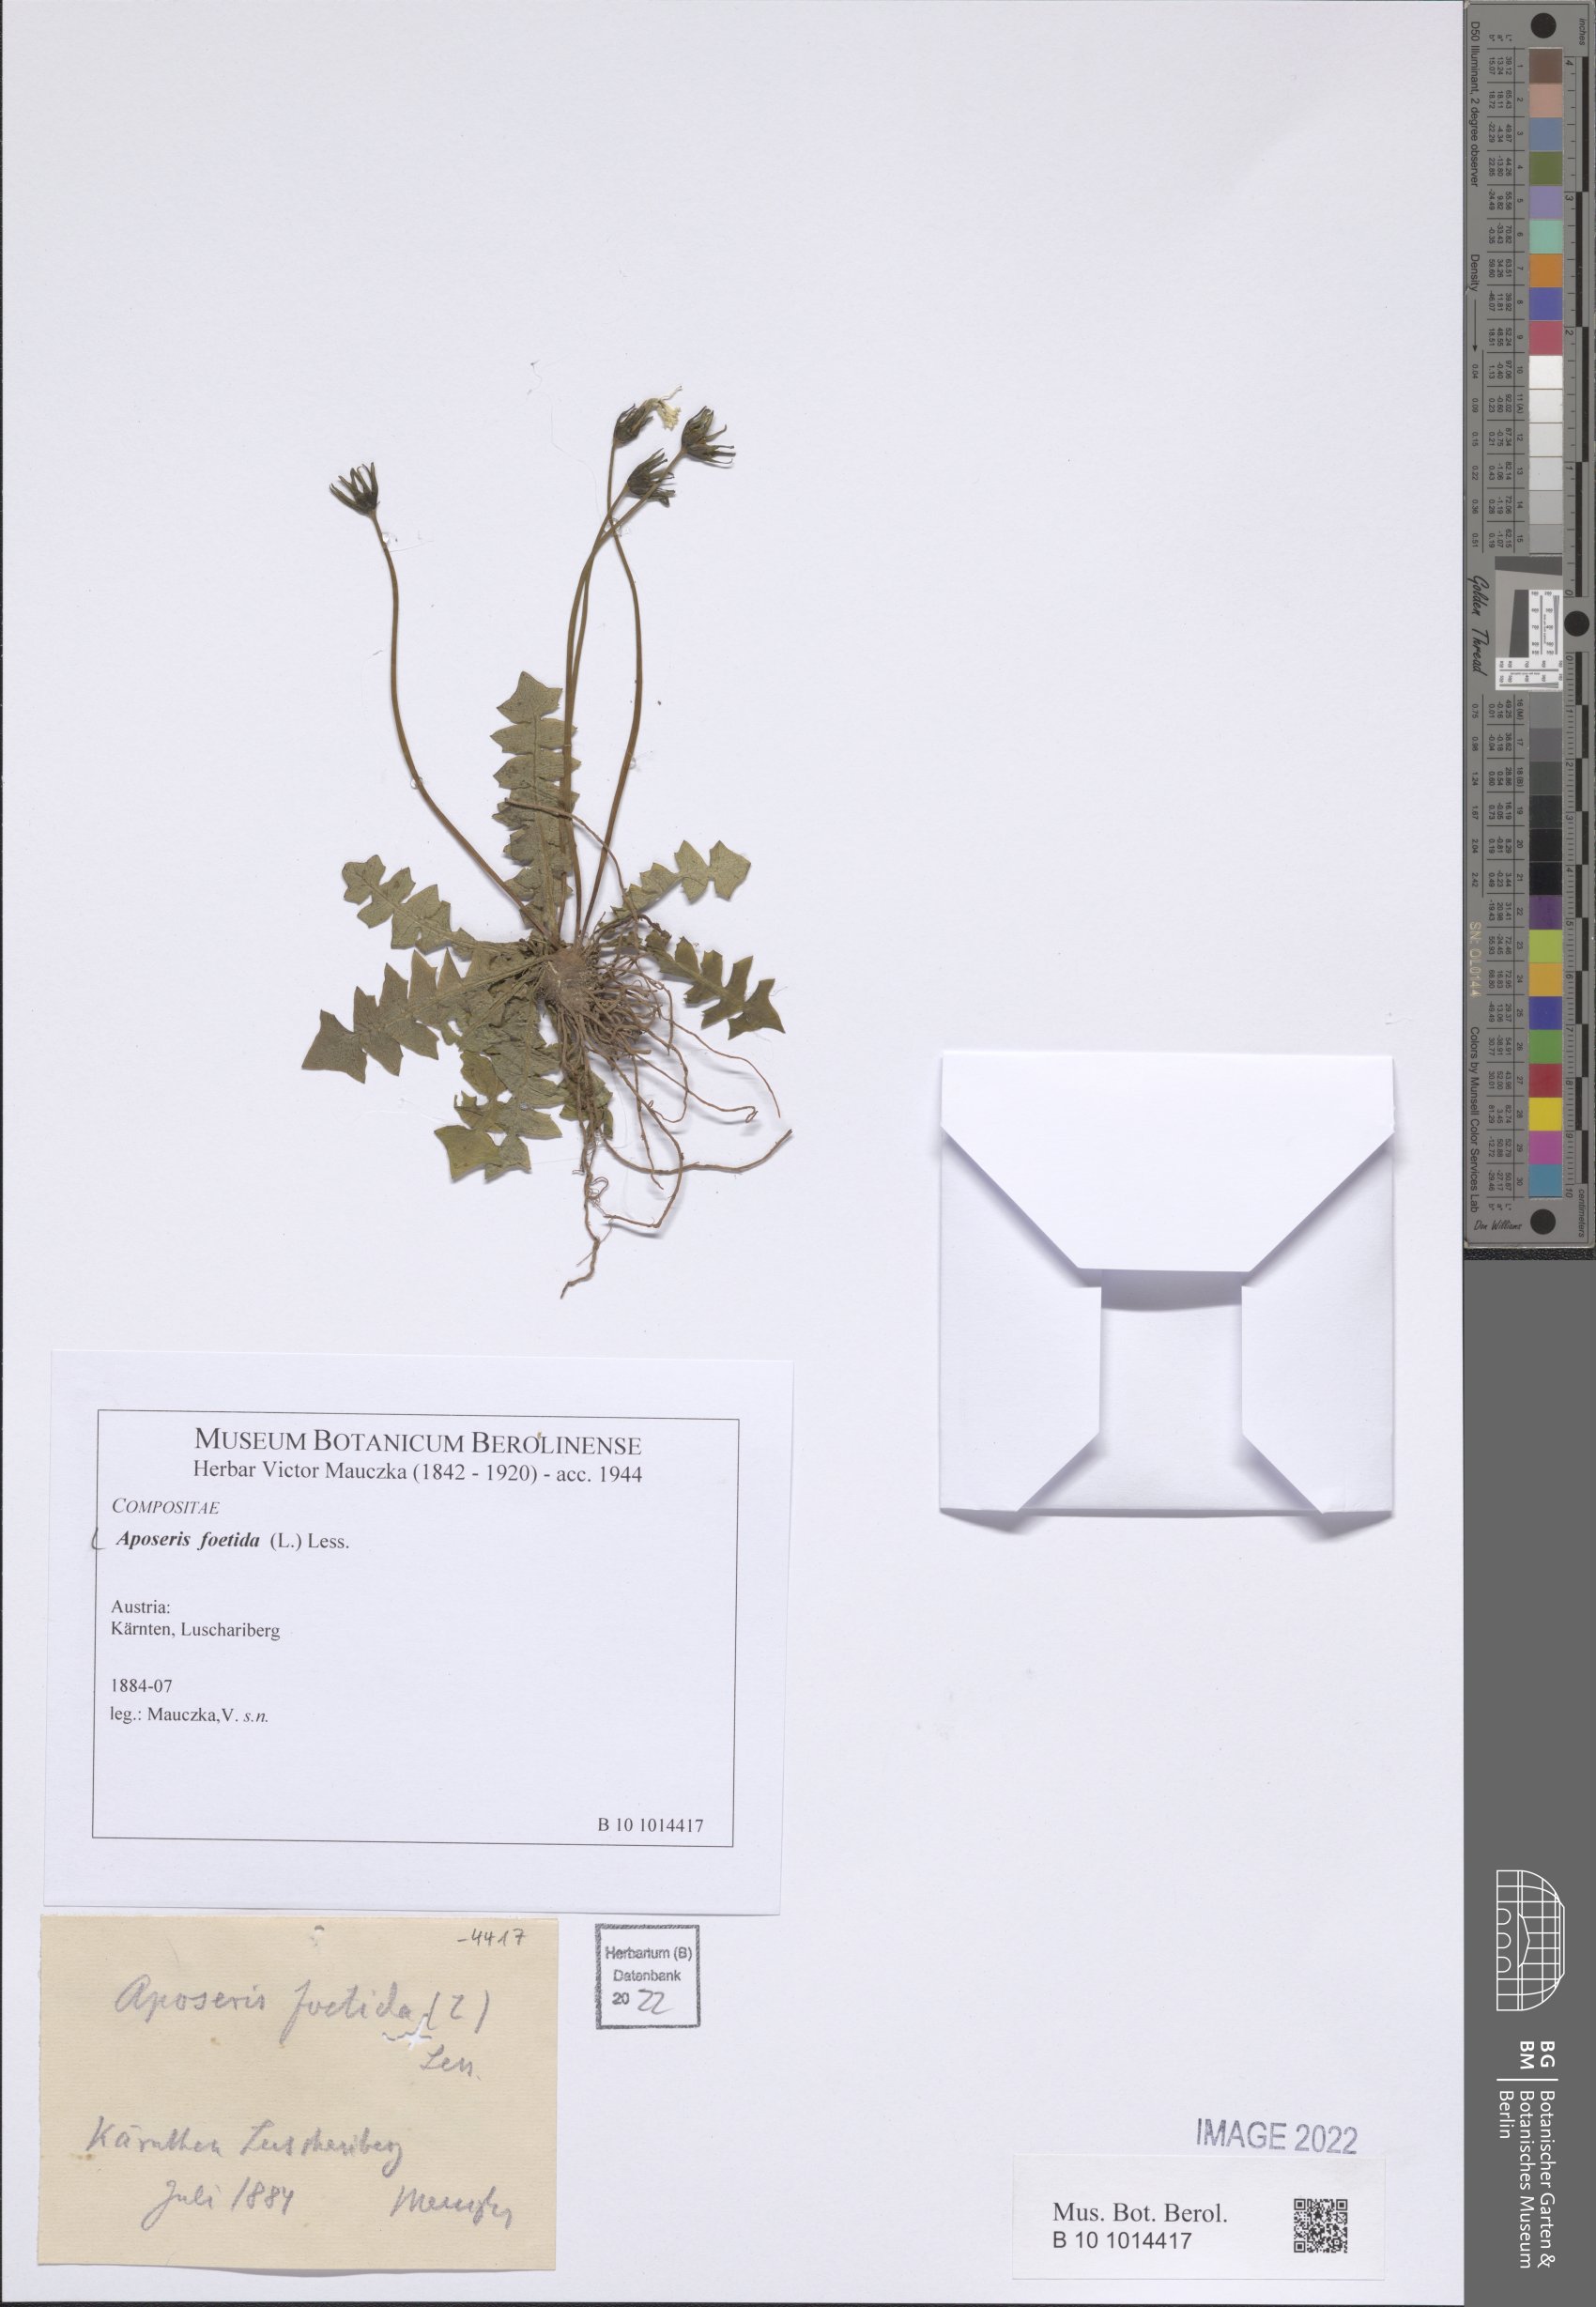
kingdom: Plantae
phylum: Tracheophyta
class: Magnoliopsida
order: Asterales
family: Asteraceae
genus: Aposeris
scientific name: Aposeris foetida
